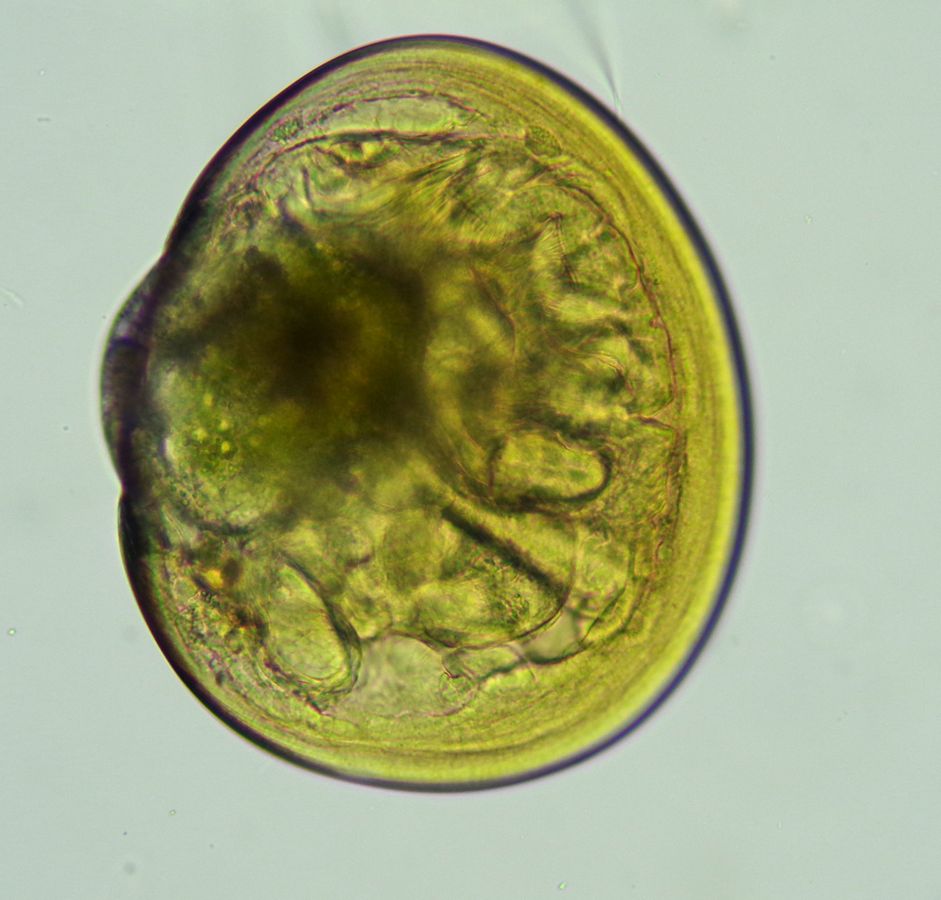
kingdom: Animalia
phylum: Mollusca
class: Bivalvia
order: Mytilida
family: Mytilidae
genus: Mytilus
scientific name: Mytilus edulis
